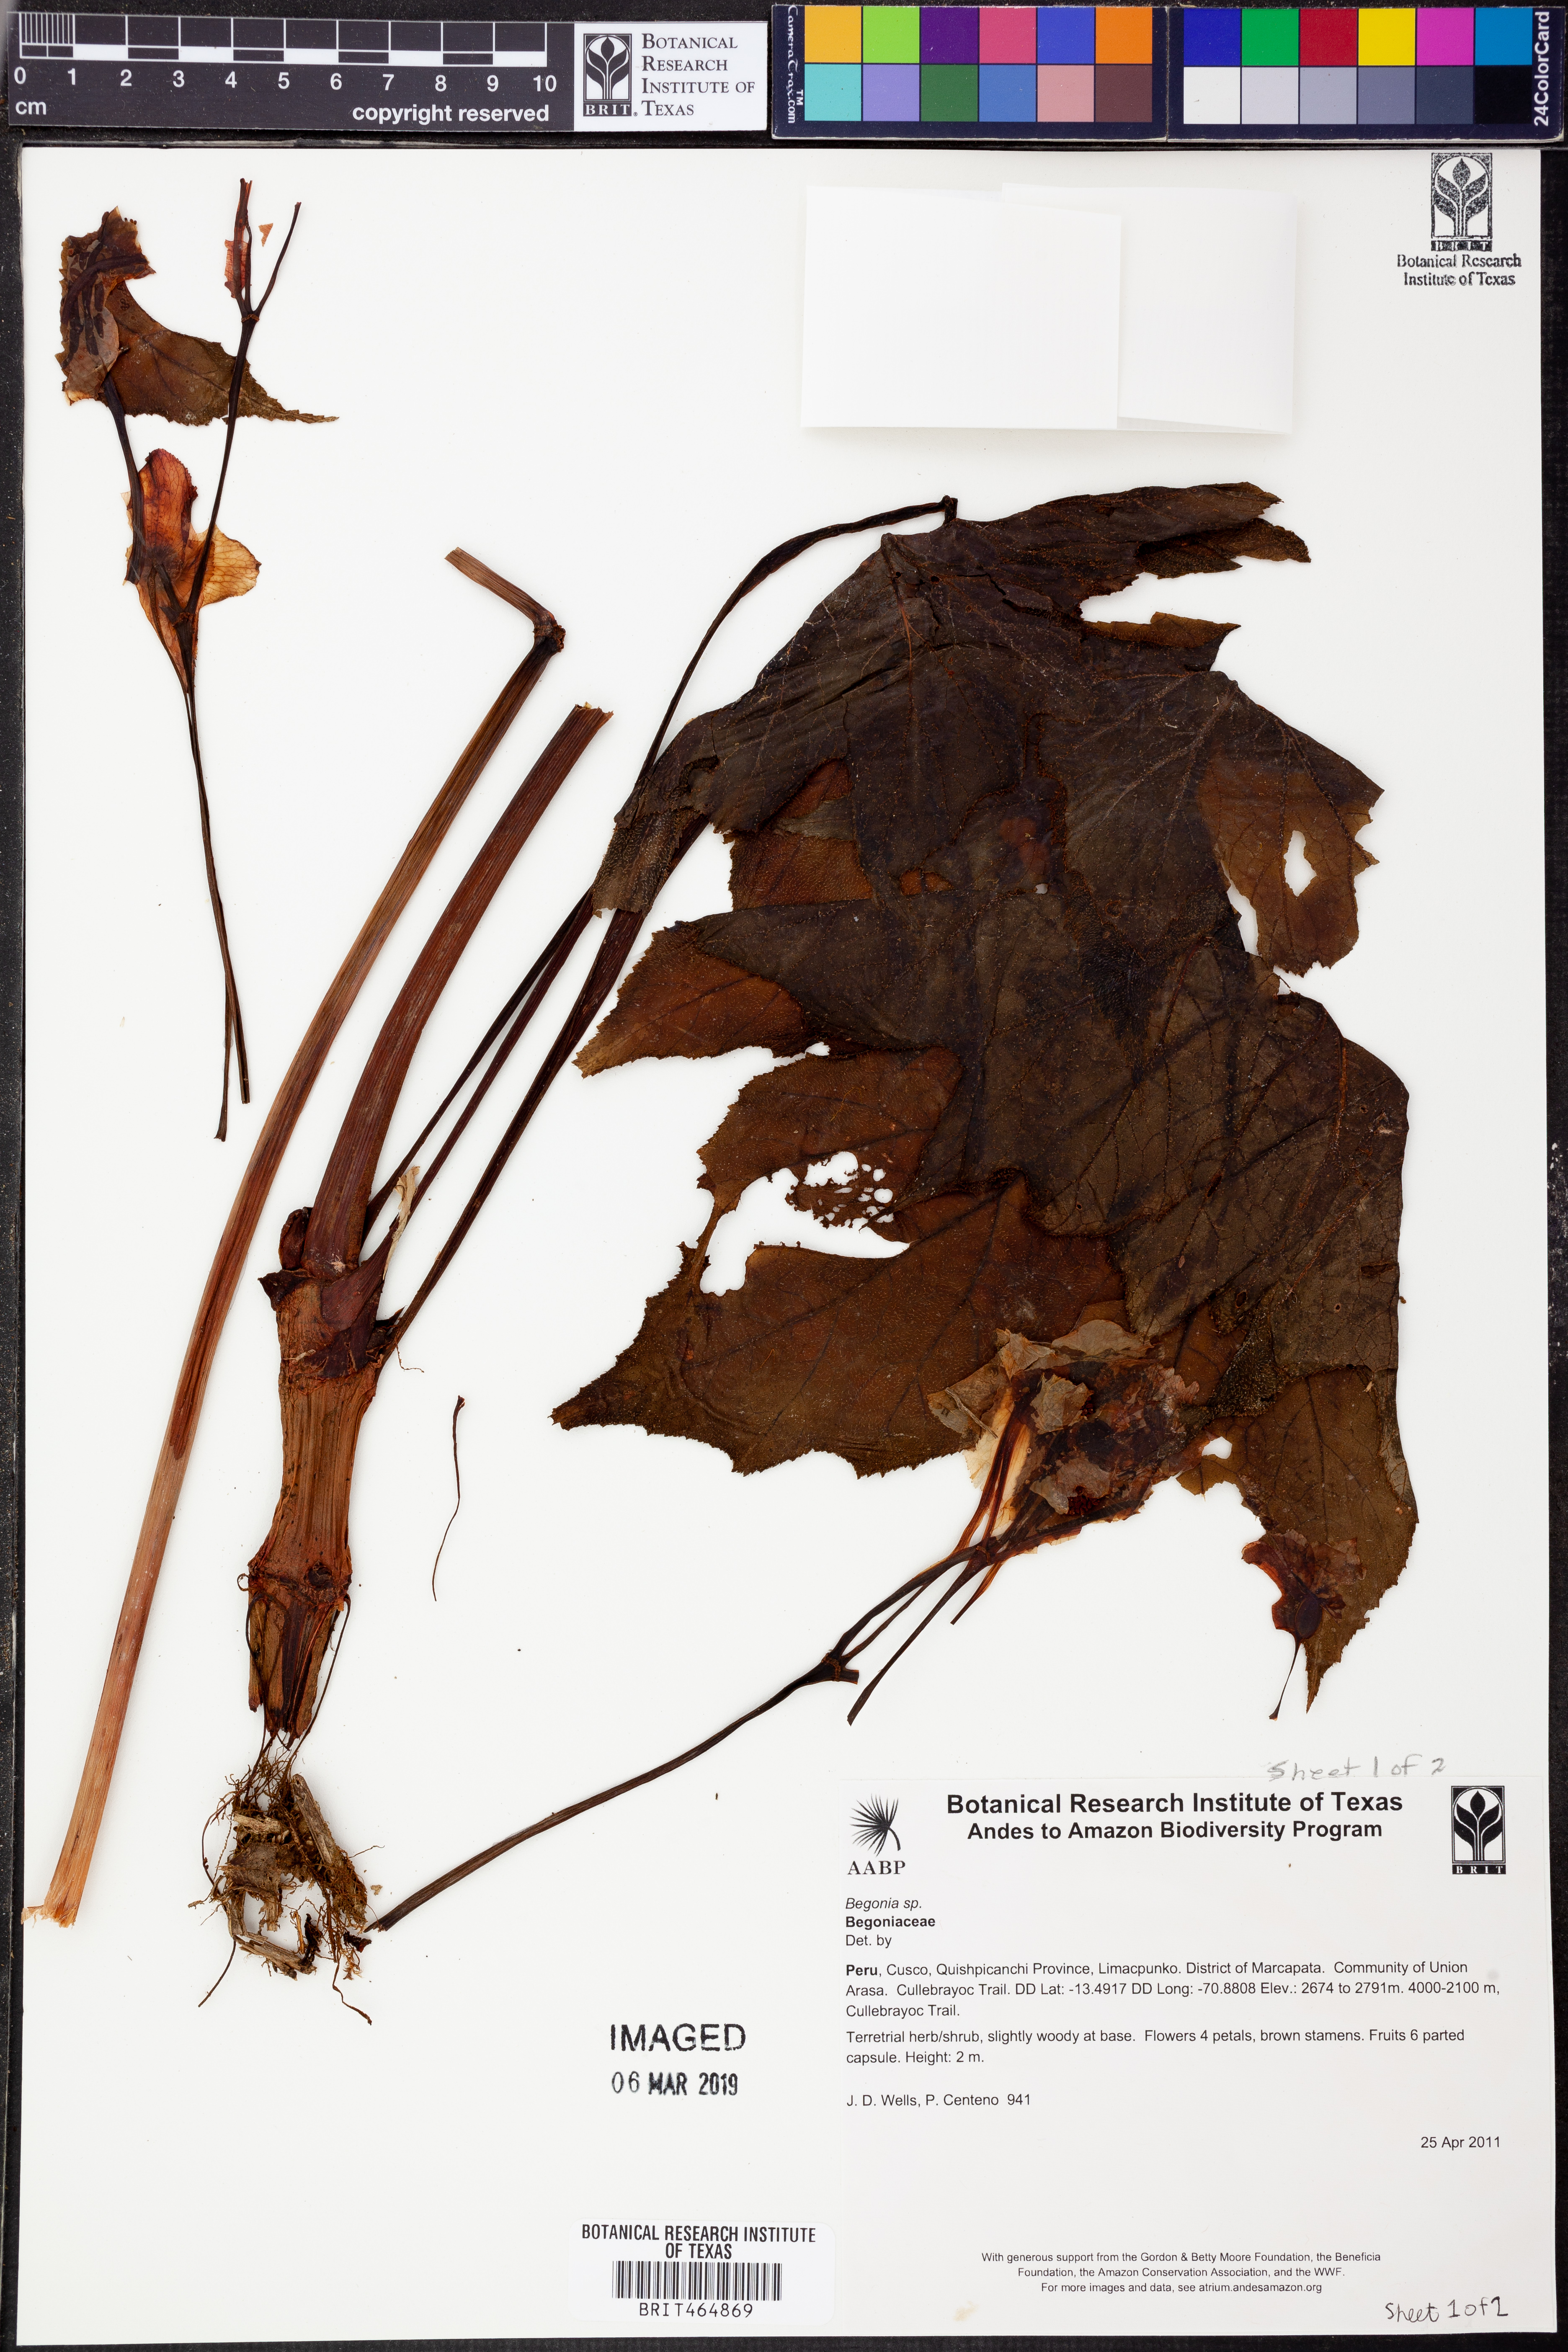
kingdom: Plantae
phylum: Tracheophyta
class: Magnoliopsida
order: Cucurbitales
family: Begoniaceae
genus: Begonia
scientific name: Begonia acerifolia
